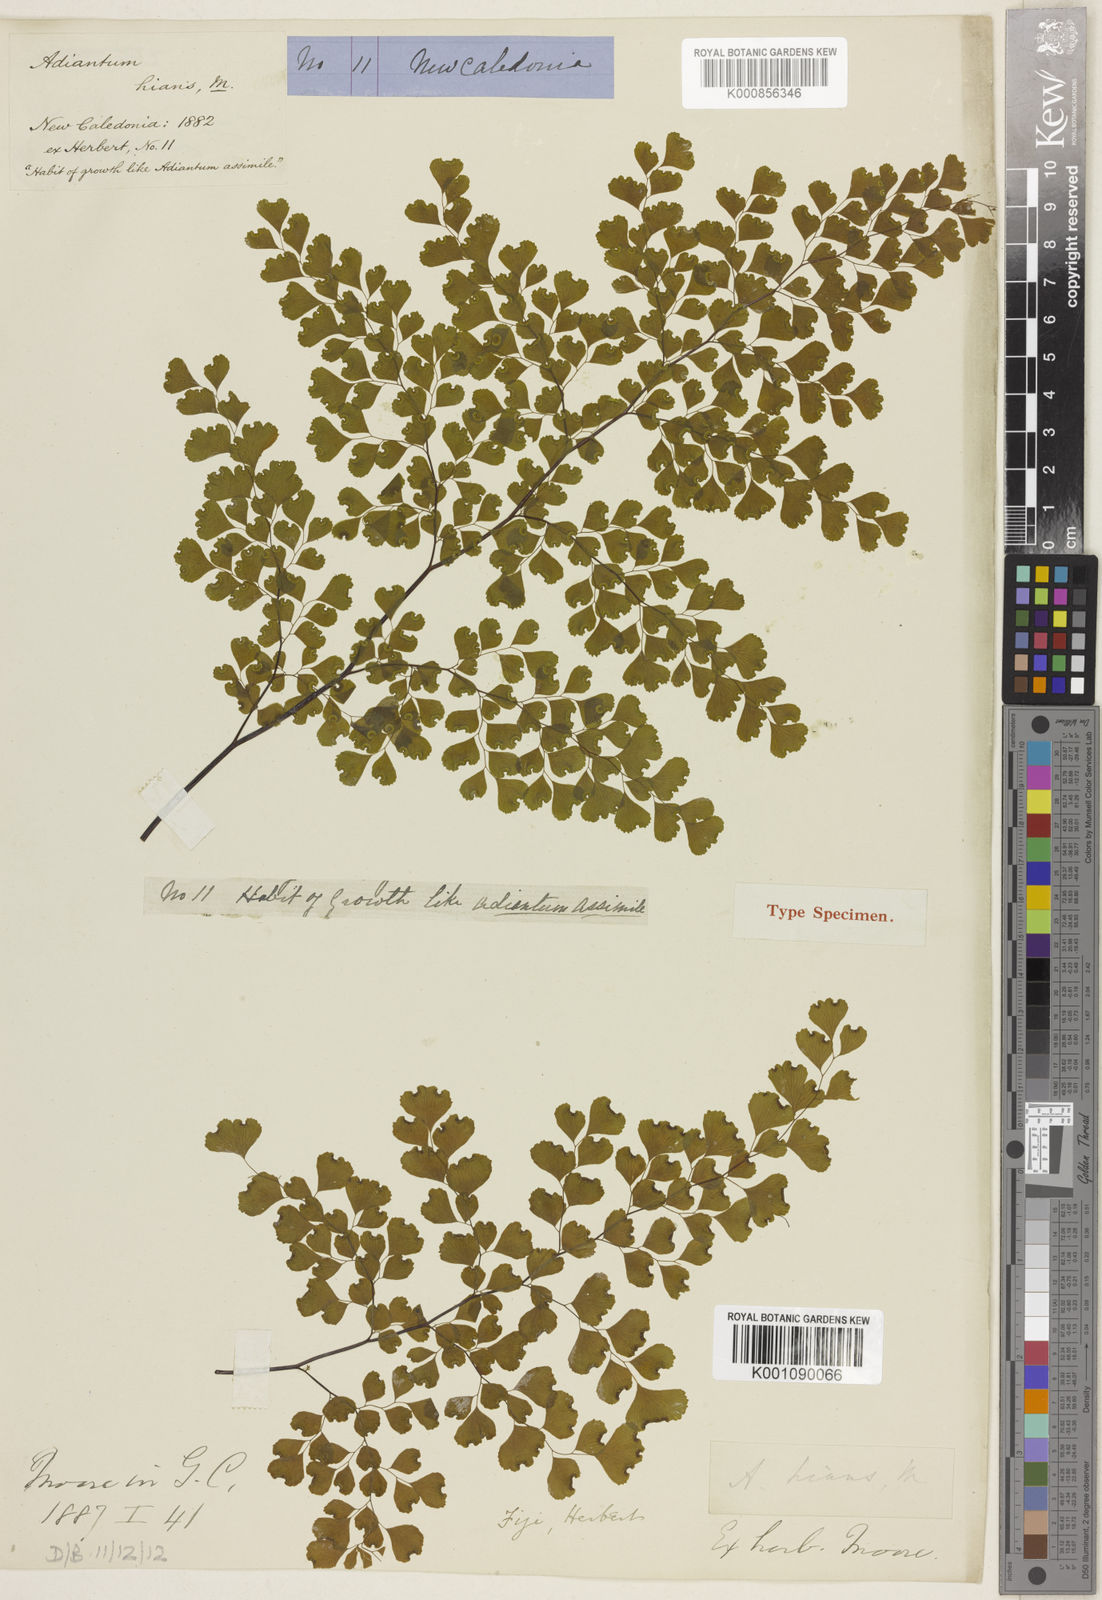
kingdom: Plantae
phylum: Tracheophyta
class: Polypodiopsida
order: Polypodiales
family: Pteridaceae
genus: Adiantum
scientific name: Adiantum hians
